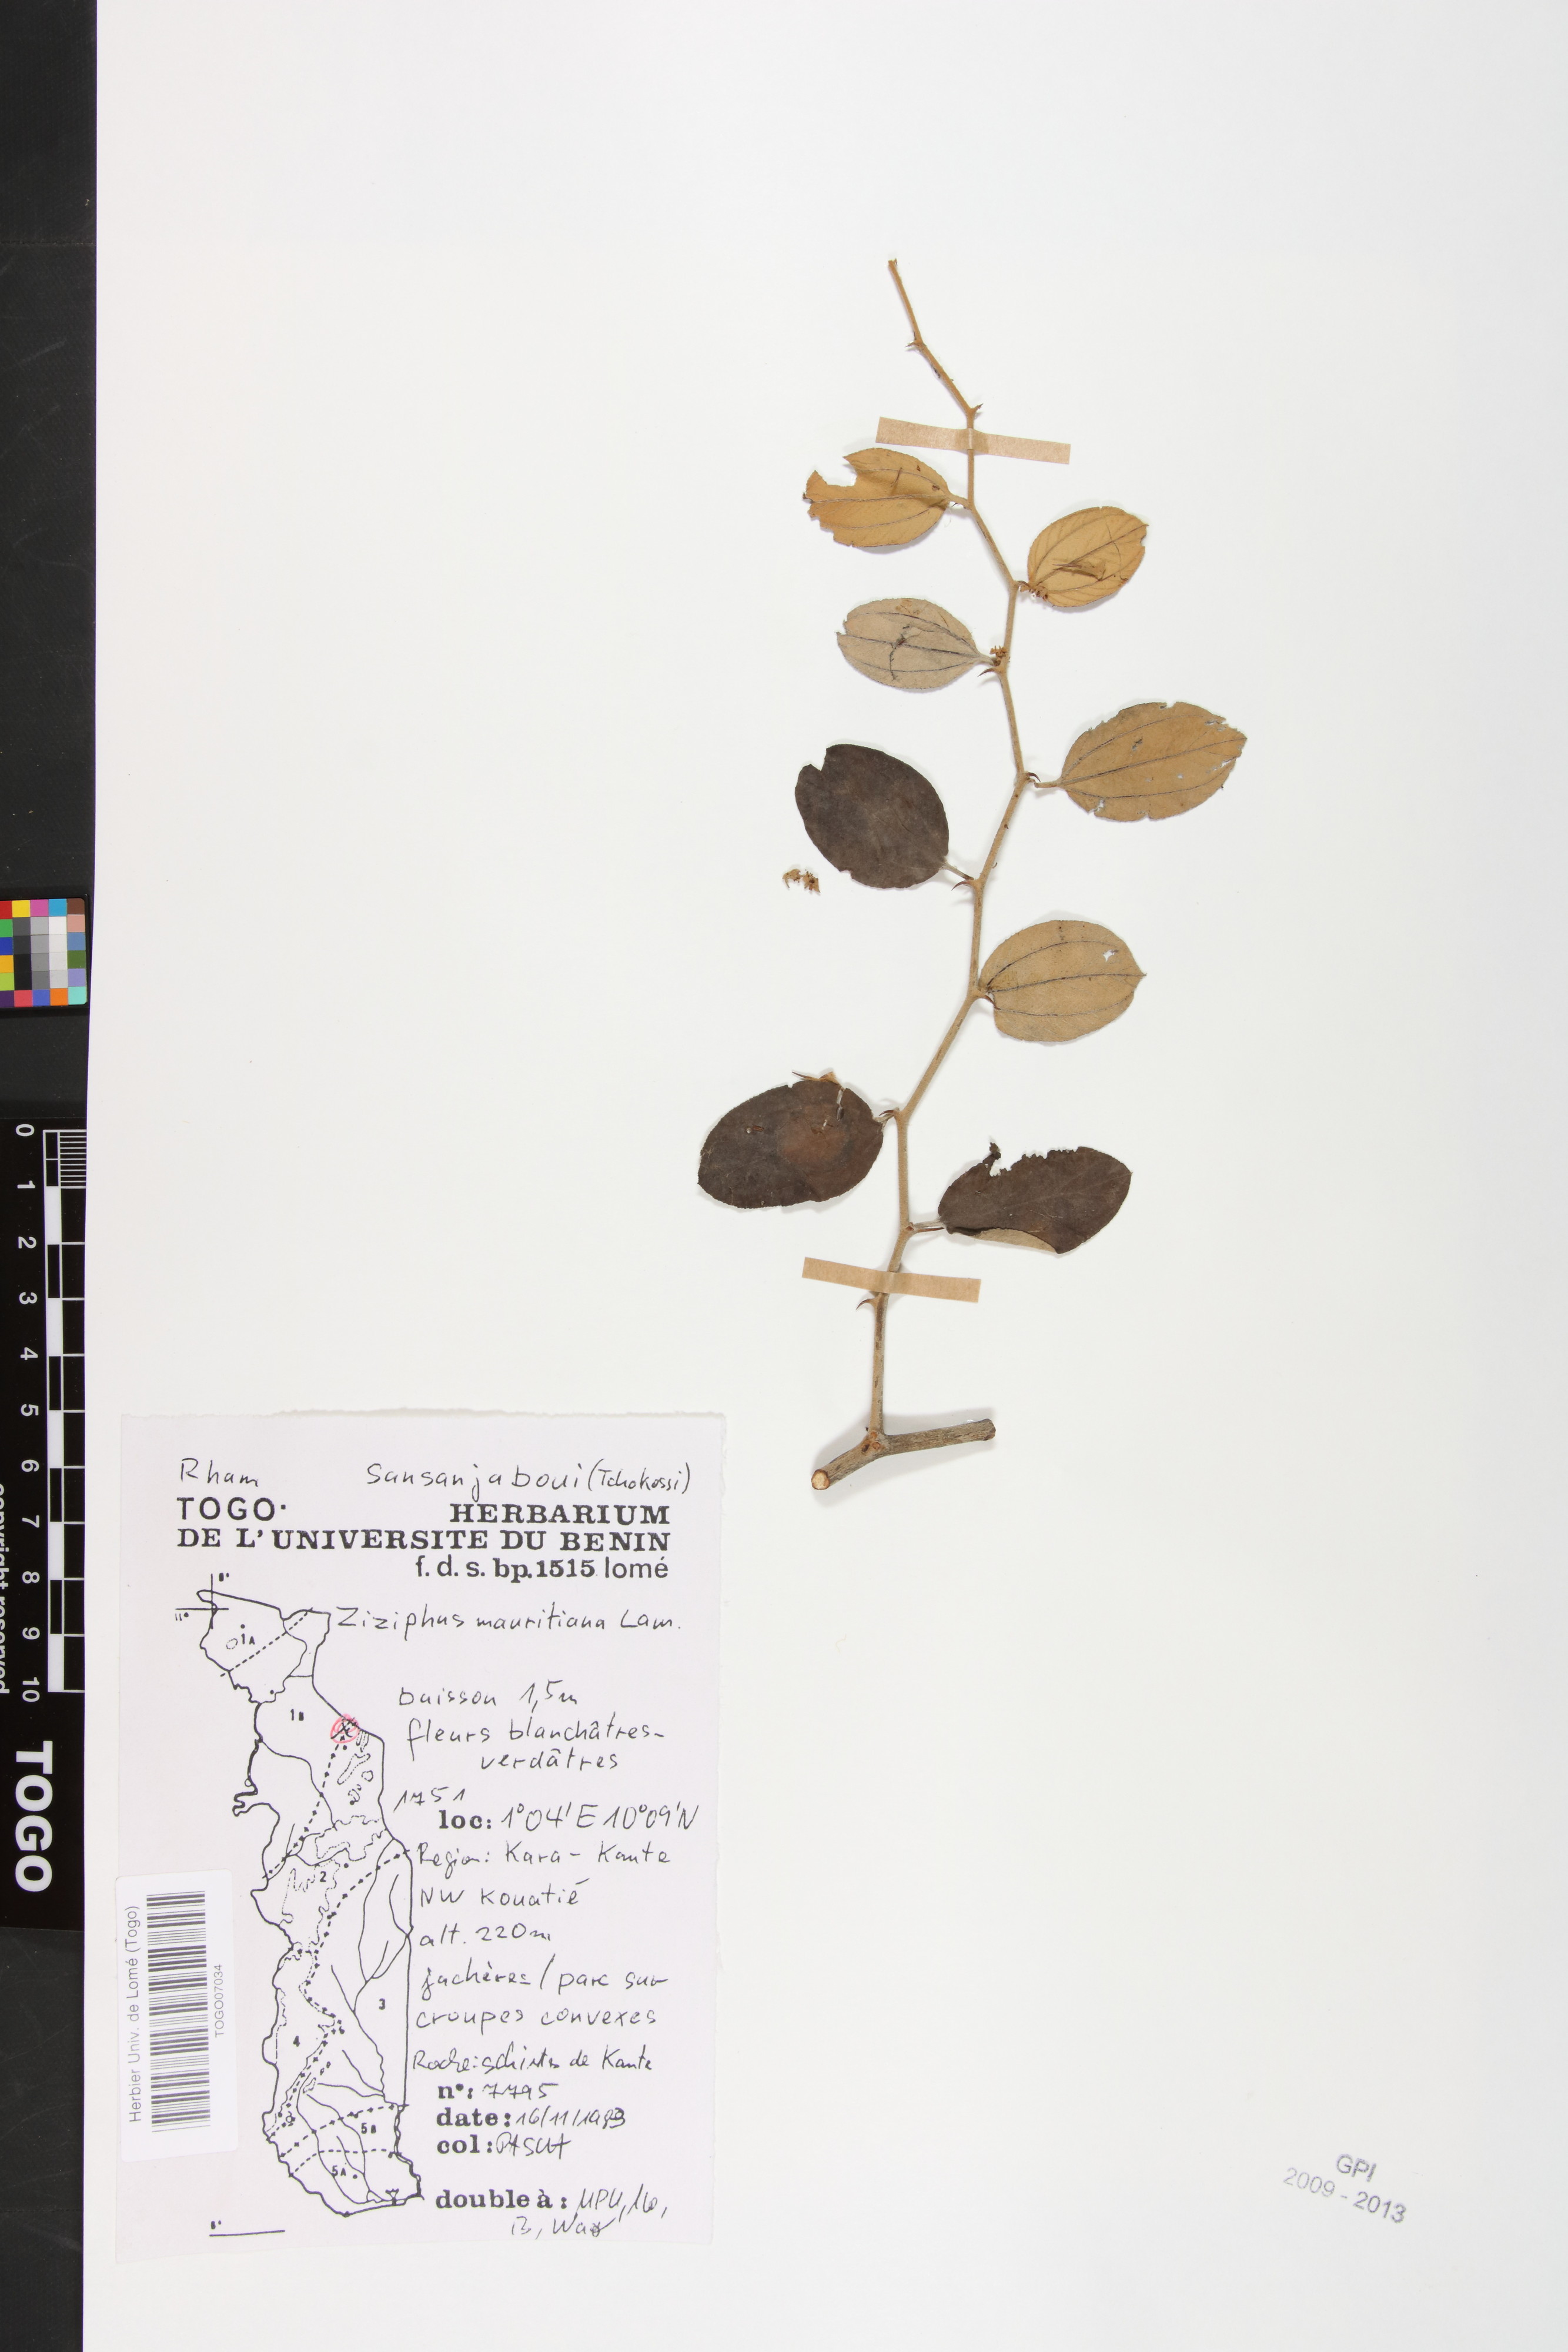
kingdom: Plantae
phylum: Tracheophyta
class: Magnoliopsida
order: Rosales
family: Rhamnaceae
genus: Ziziphus
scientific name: Ziziphus mauritiana
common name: Indian jujube
